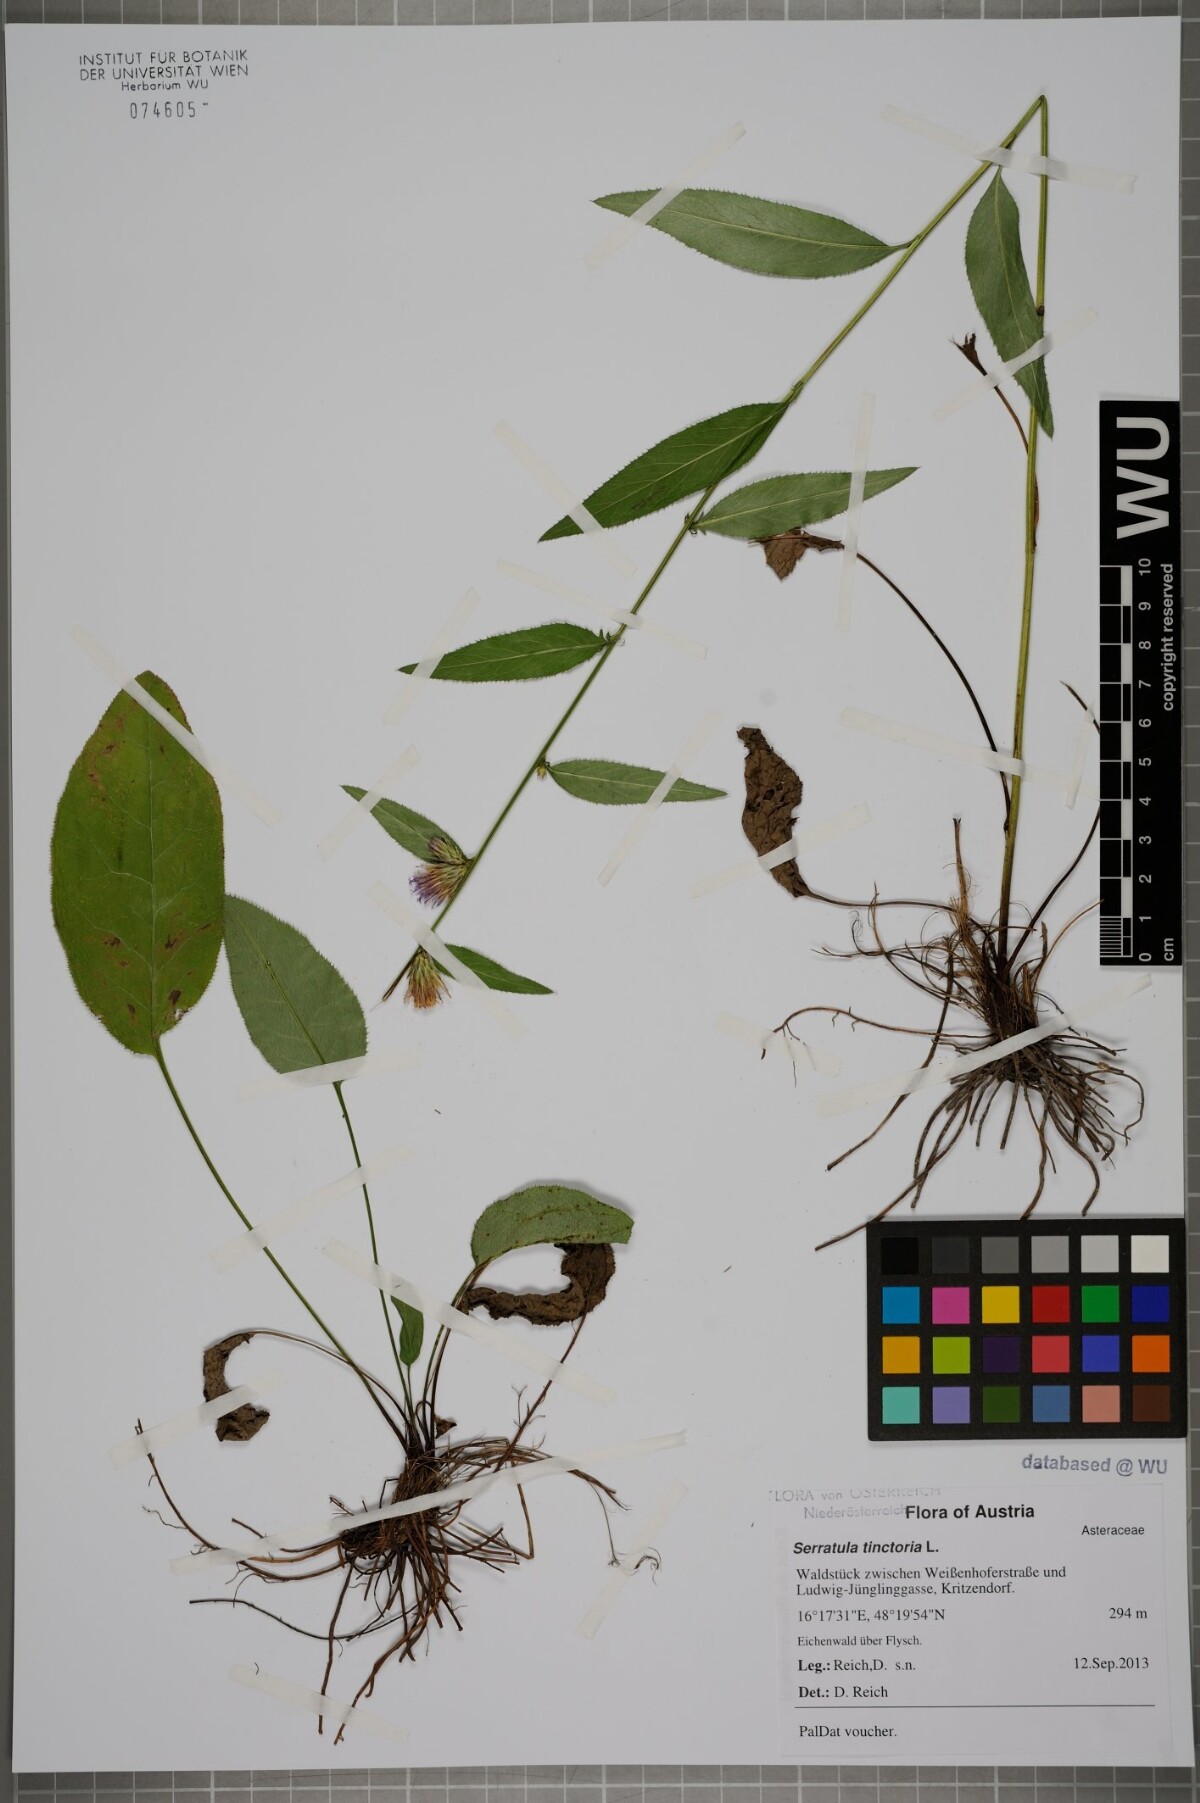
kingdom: Plantae
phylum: Tracheophyta
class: Magnoliopsida
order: Asterales
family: Asteraceae
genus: Serratula
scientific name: Serratula tinctoria
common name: Saw-wort
